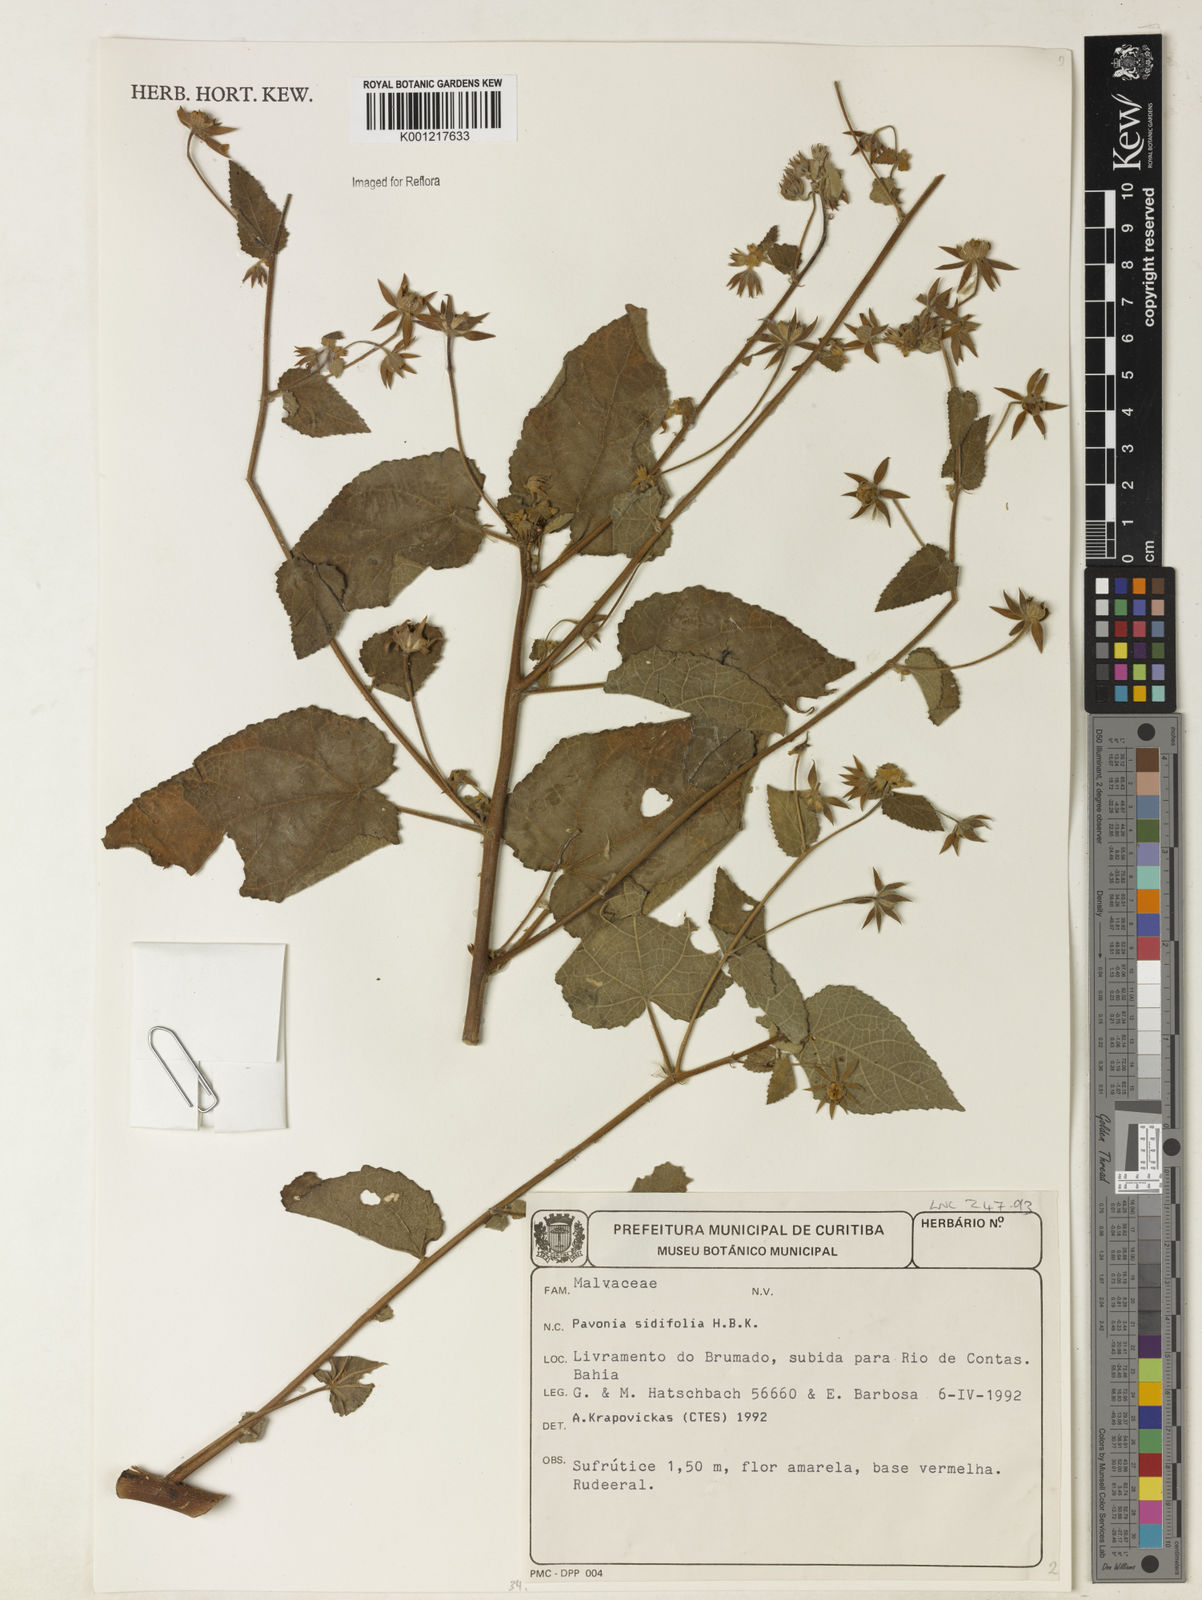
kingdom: Plantae
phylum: Tracheophyta
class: Magnoliopsida
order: Malvales
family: Malvaceae
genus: Pavonia
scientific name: Pavonia sidifolia
